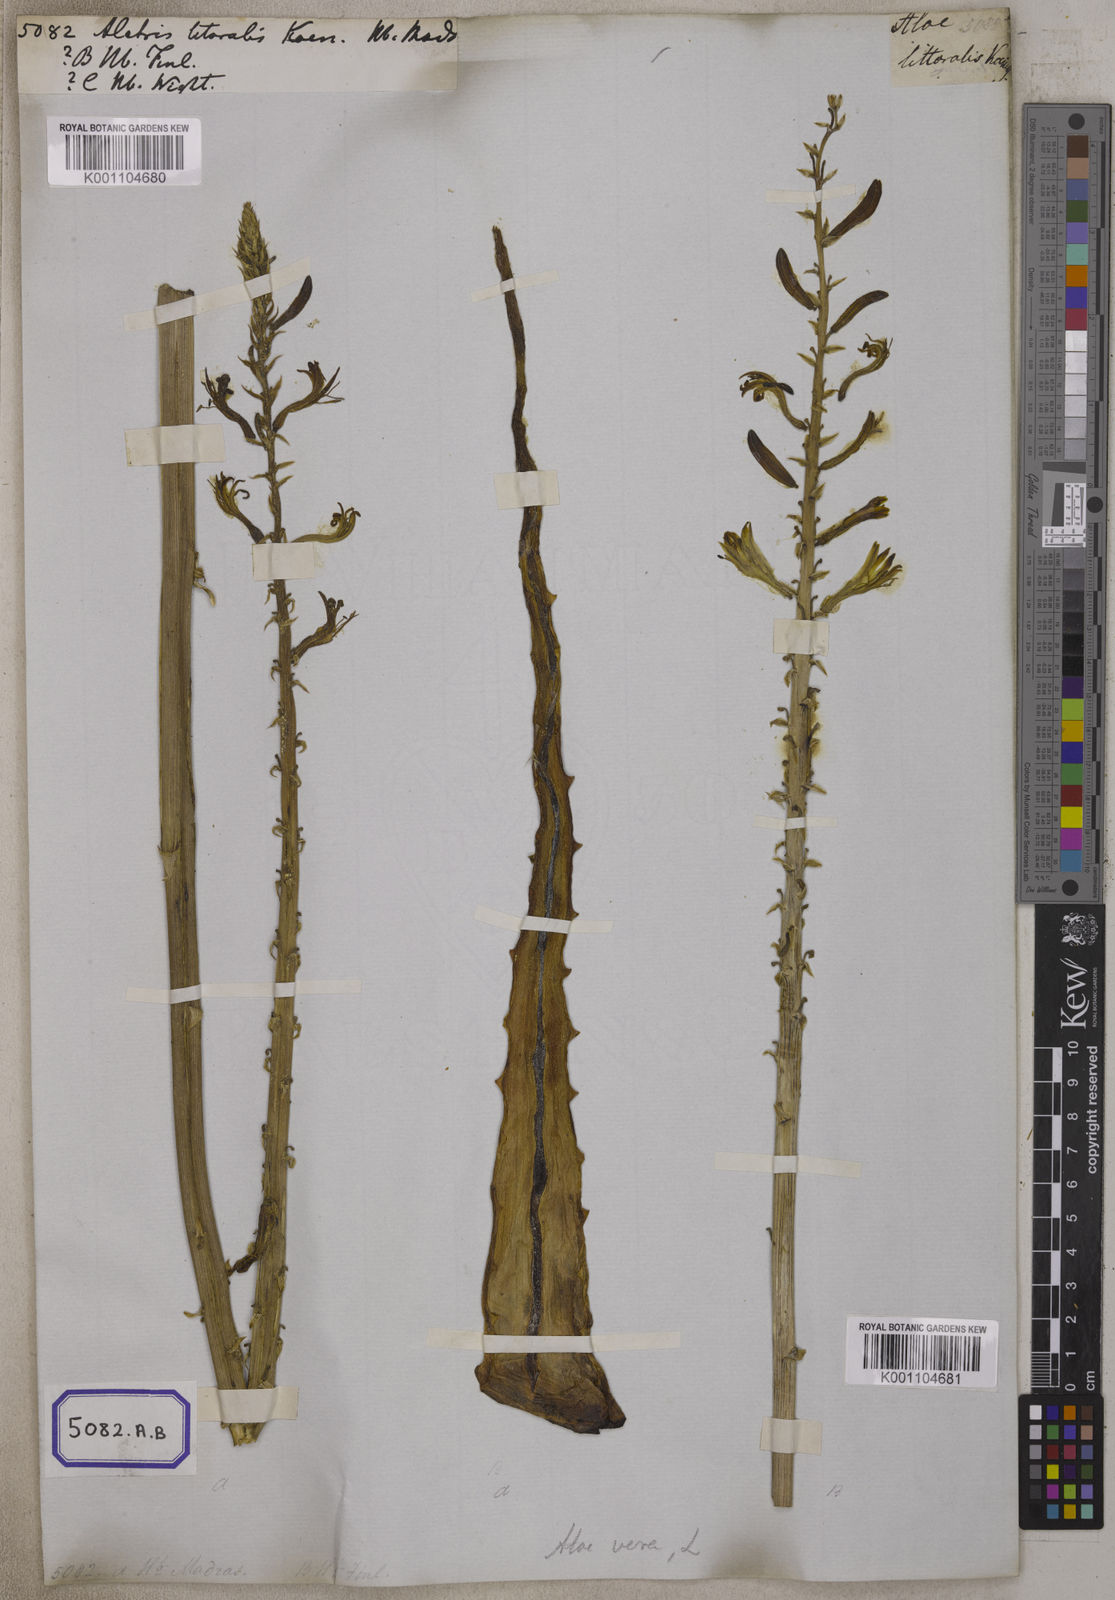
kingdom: Plantae
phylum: Tracheophyta
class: Liliopsida
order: Asparagales
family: Asparagaceae
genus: Drimia
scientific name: Drimia indica
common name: Indian-squill
